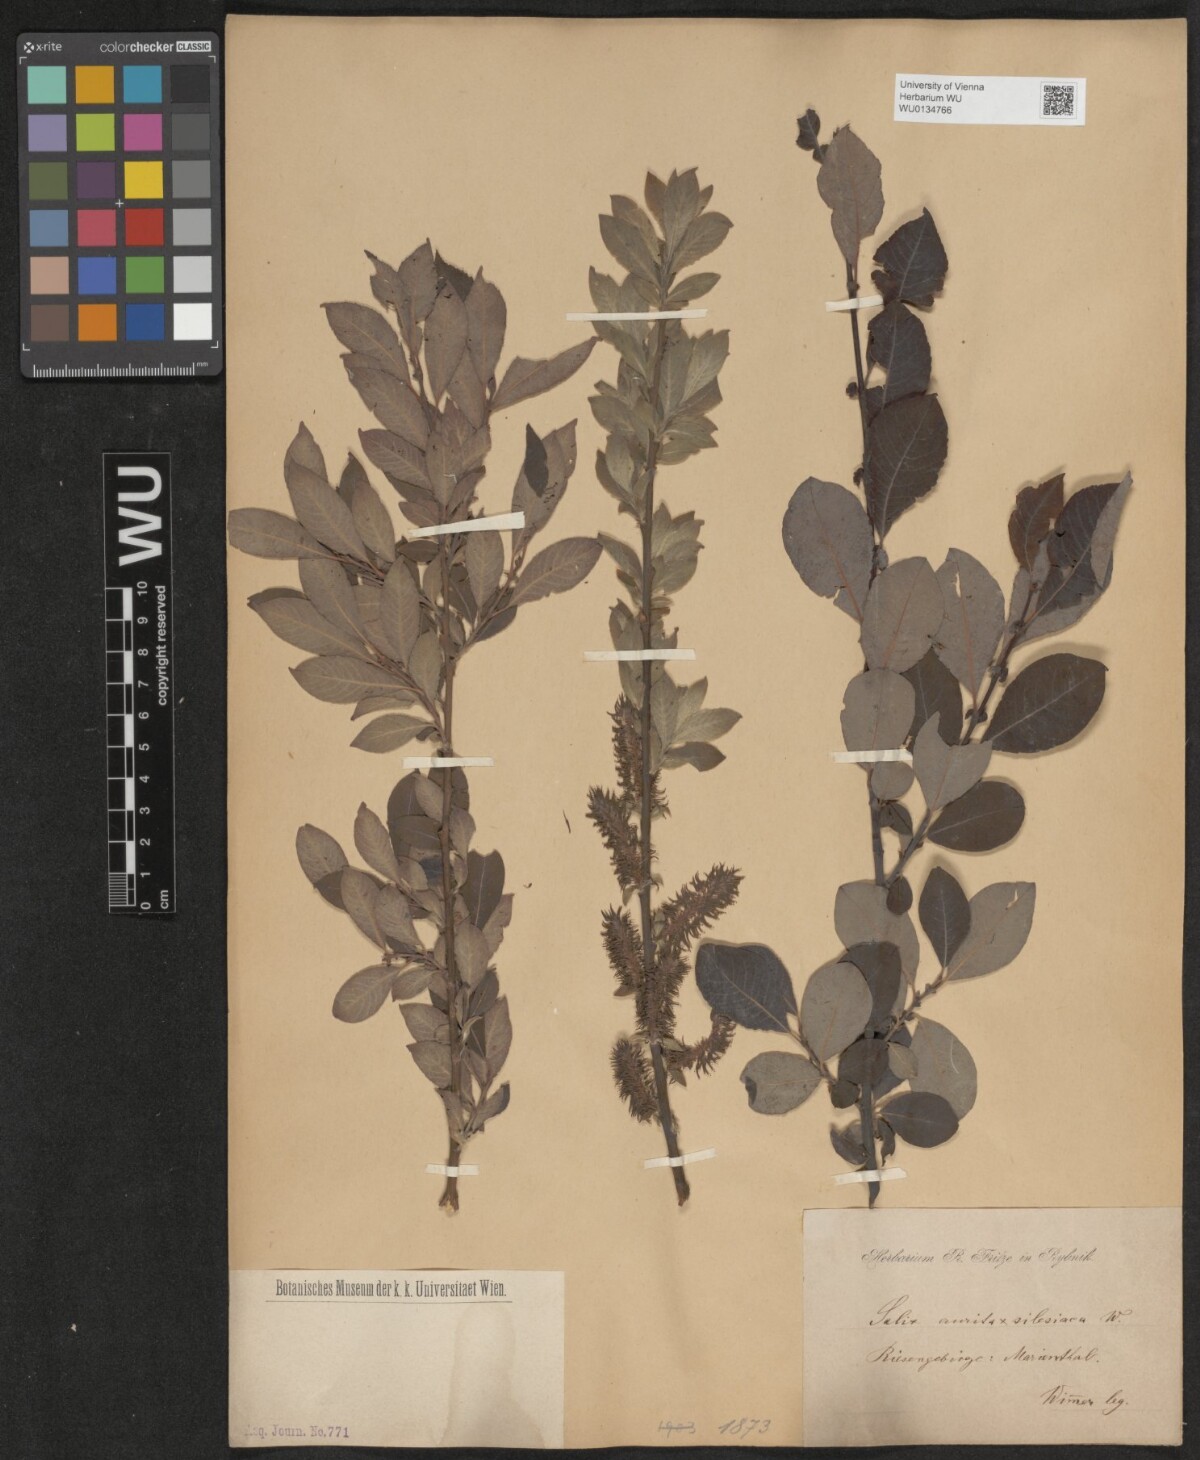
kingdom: Plantae
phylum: Tracheophyta
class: Magnoliopsida
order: Malpighiales
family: Salicaceae
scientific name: Salicaceae
